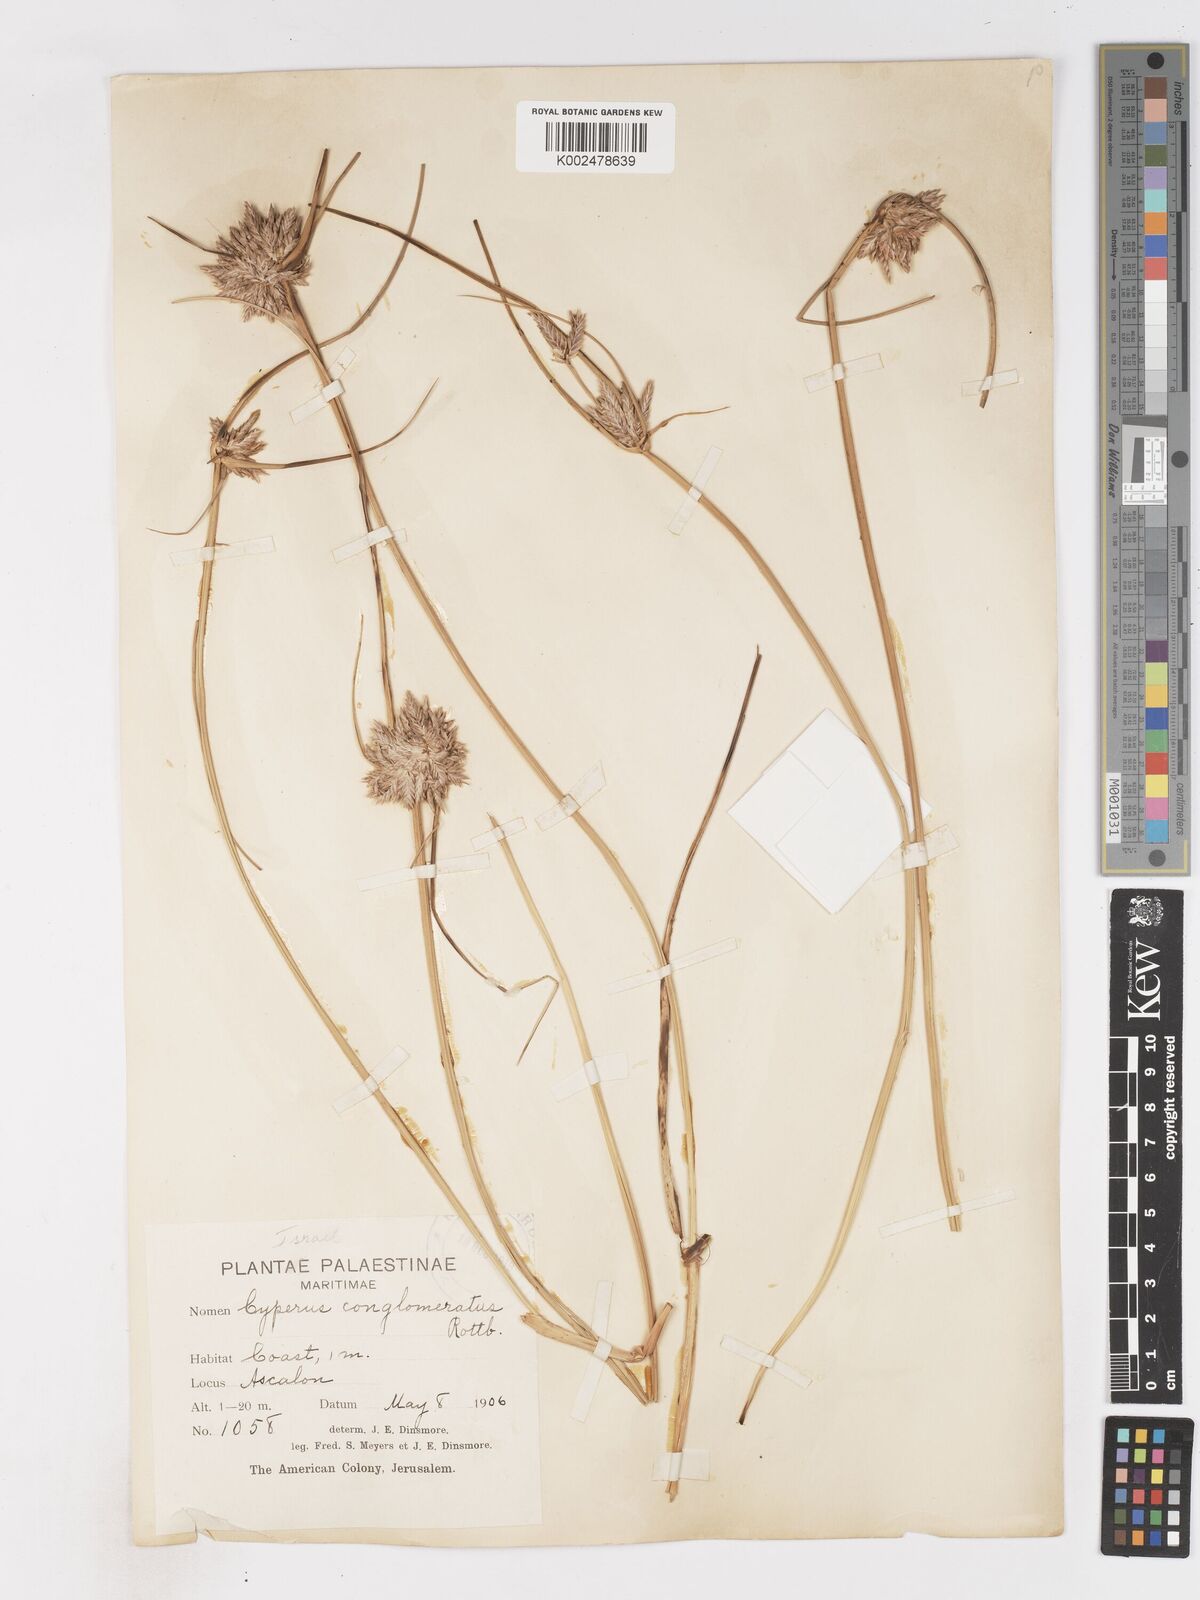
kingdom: Plantae
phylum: Tracheophyta
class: Liliopsida
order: Poales
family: Cyperaceae
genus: Cyperus
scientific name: Cyperus conglomeratus
